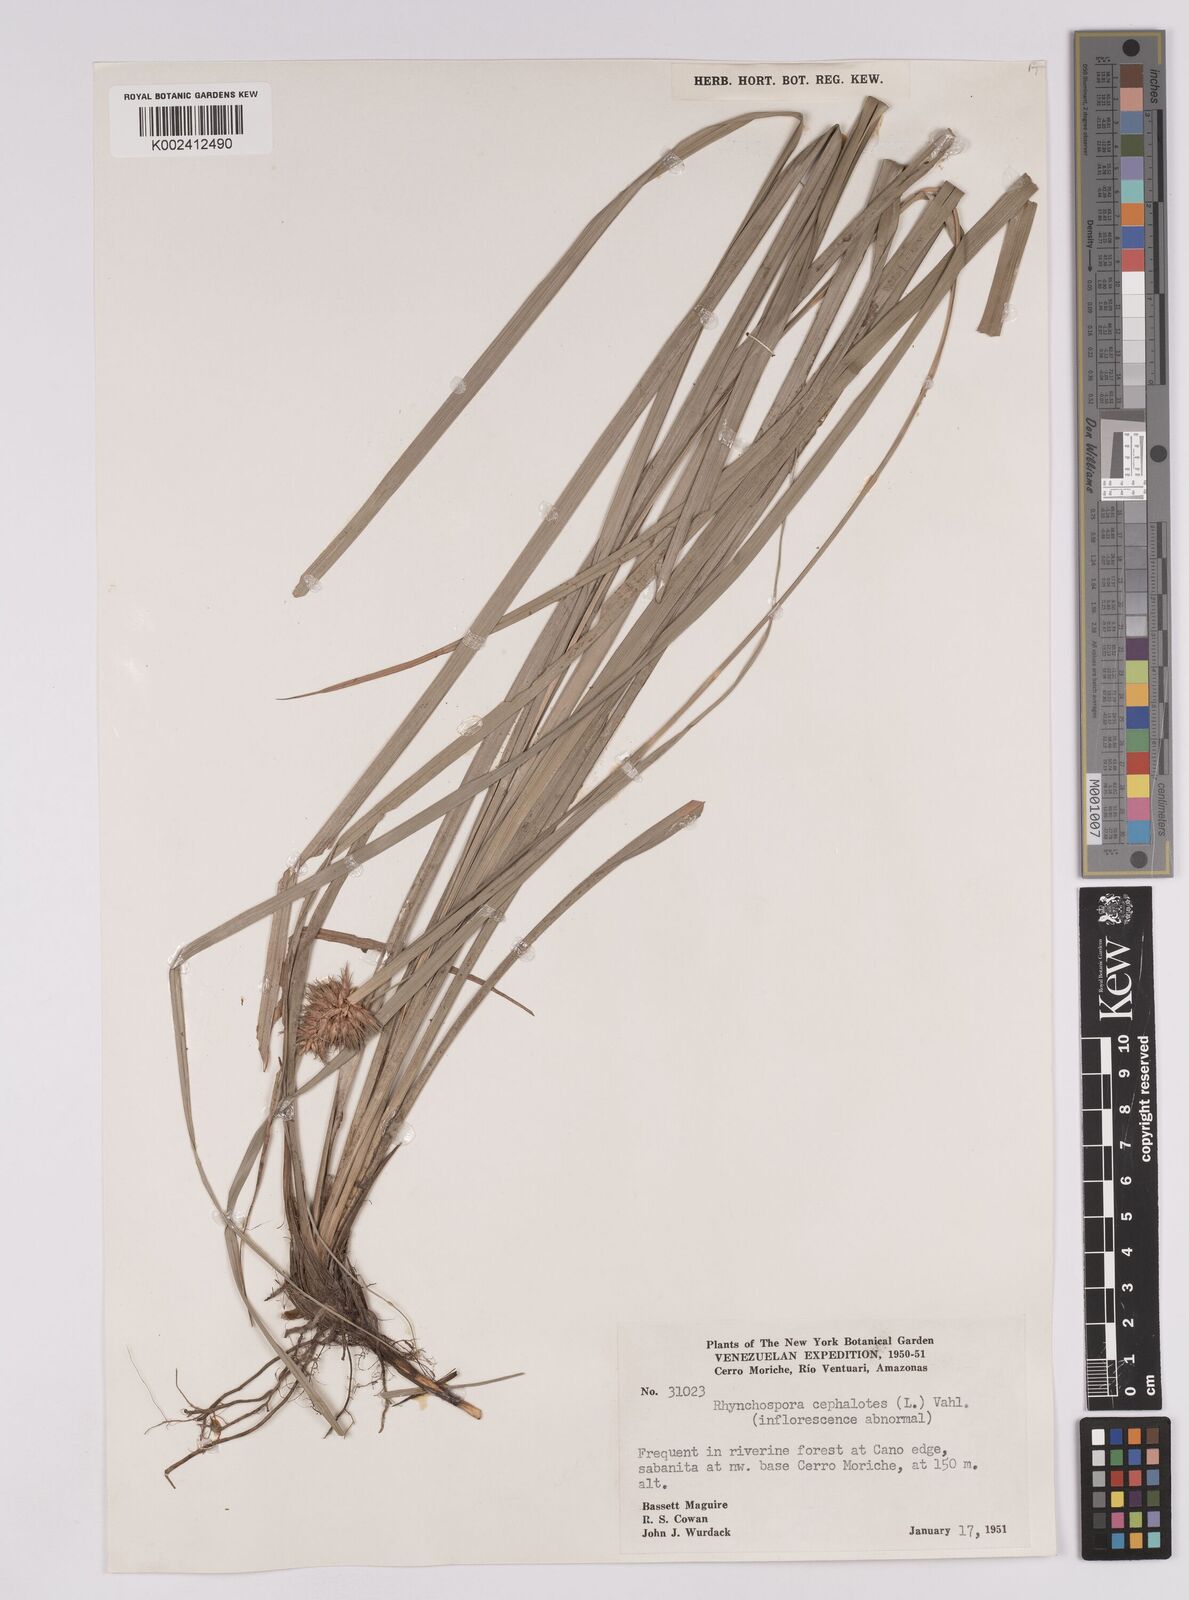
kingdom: Plantae
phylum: Tracheophyta
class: Liliopsida
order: Poales
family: Cyperaceae
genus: Rhynchospora
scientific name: Rhynchospora cephalotes
